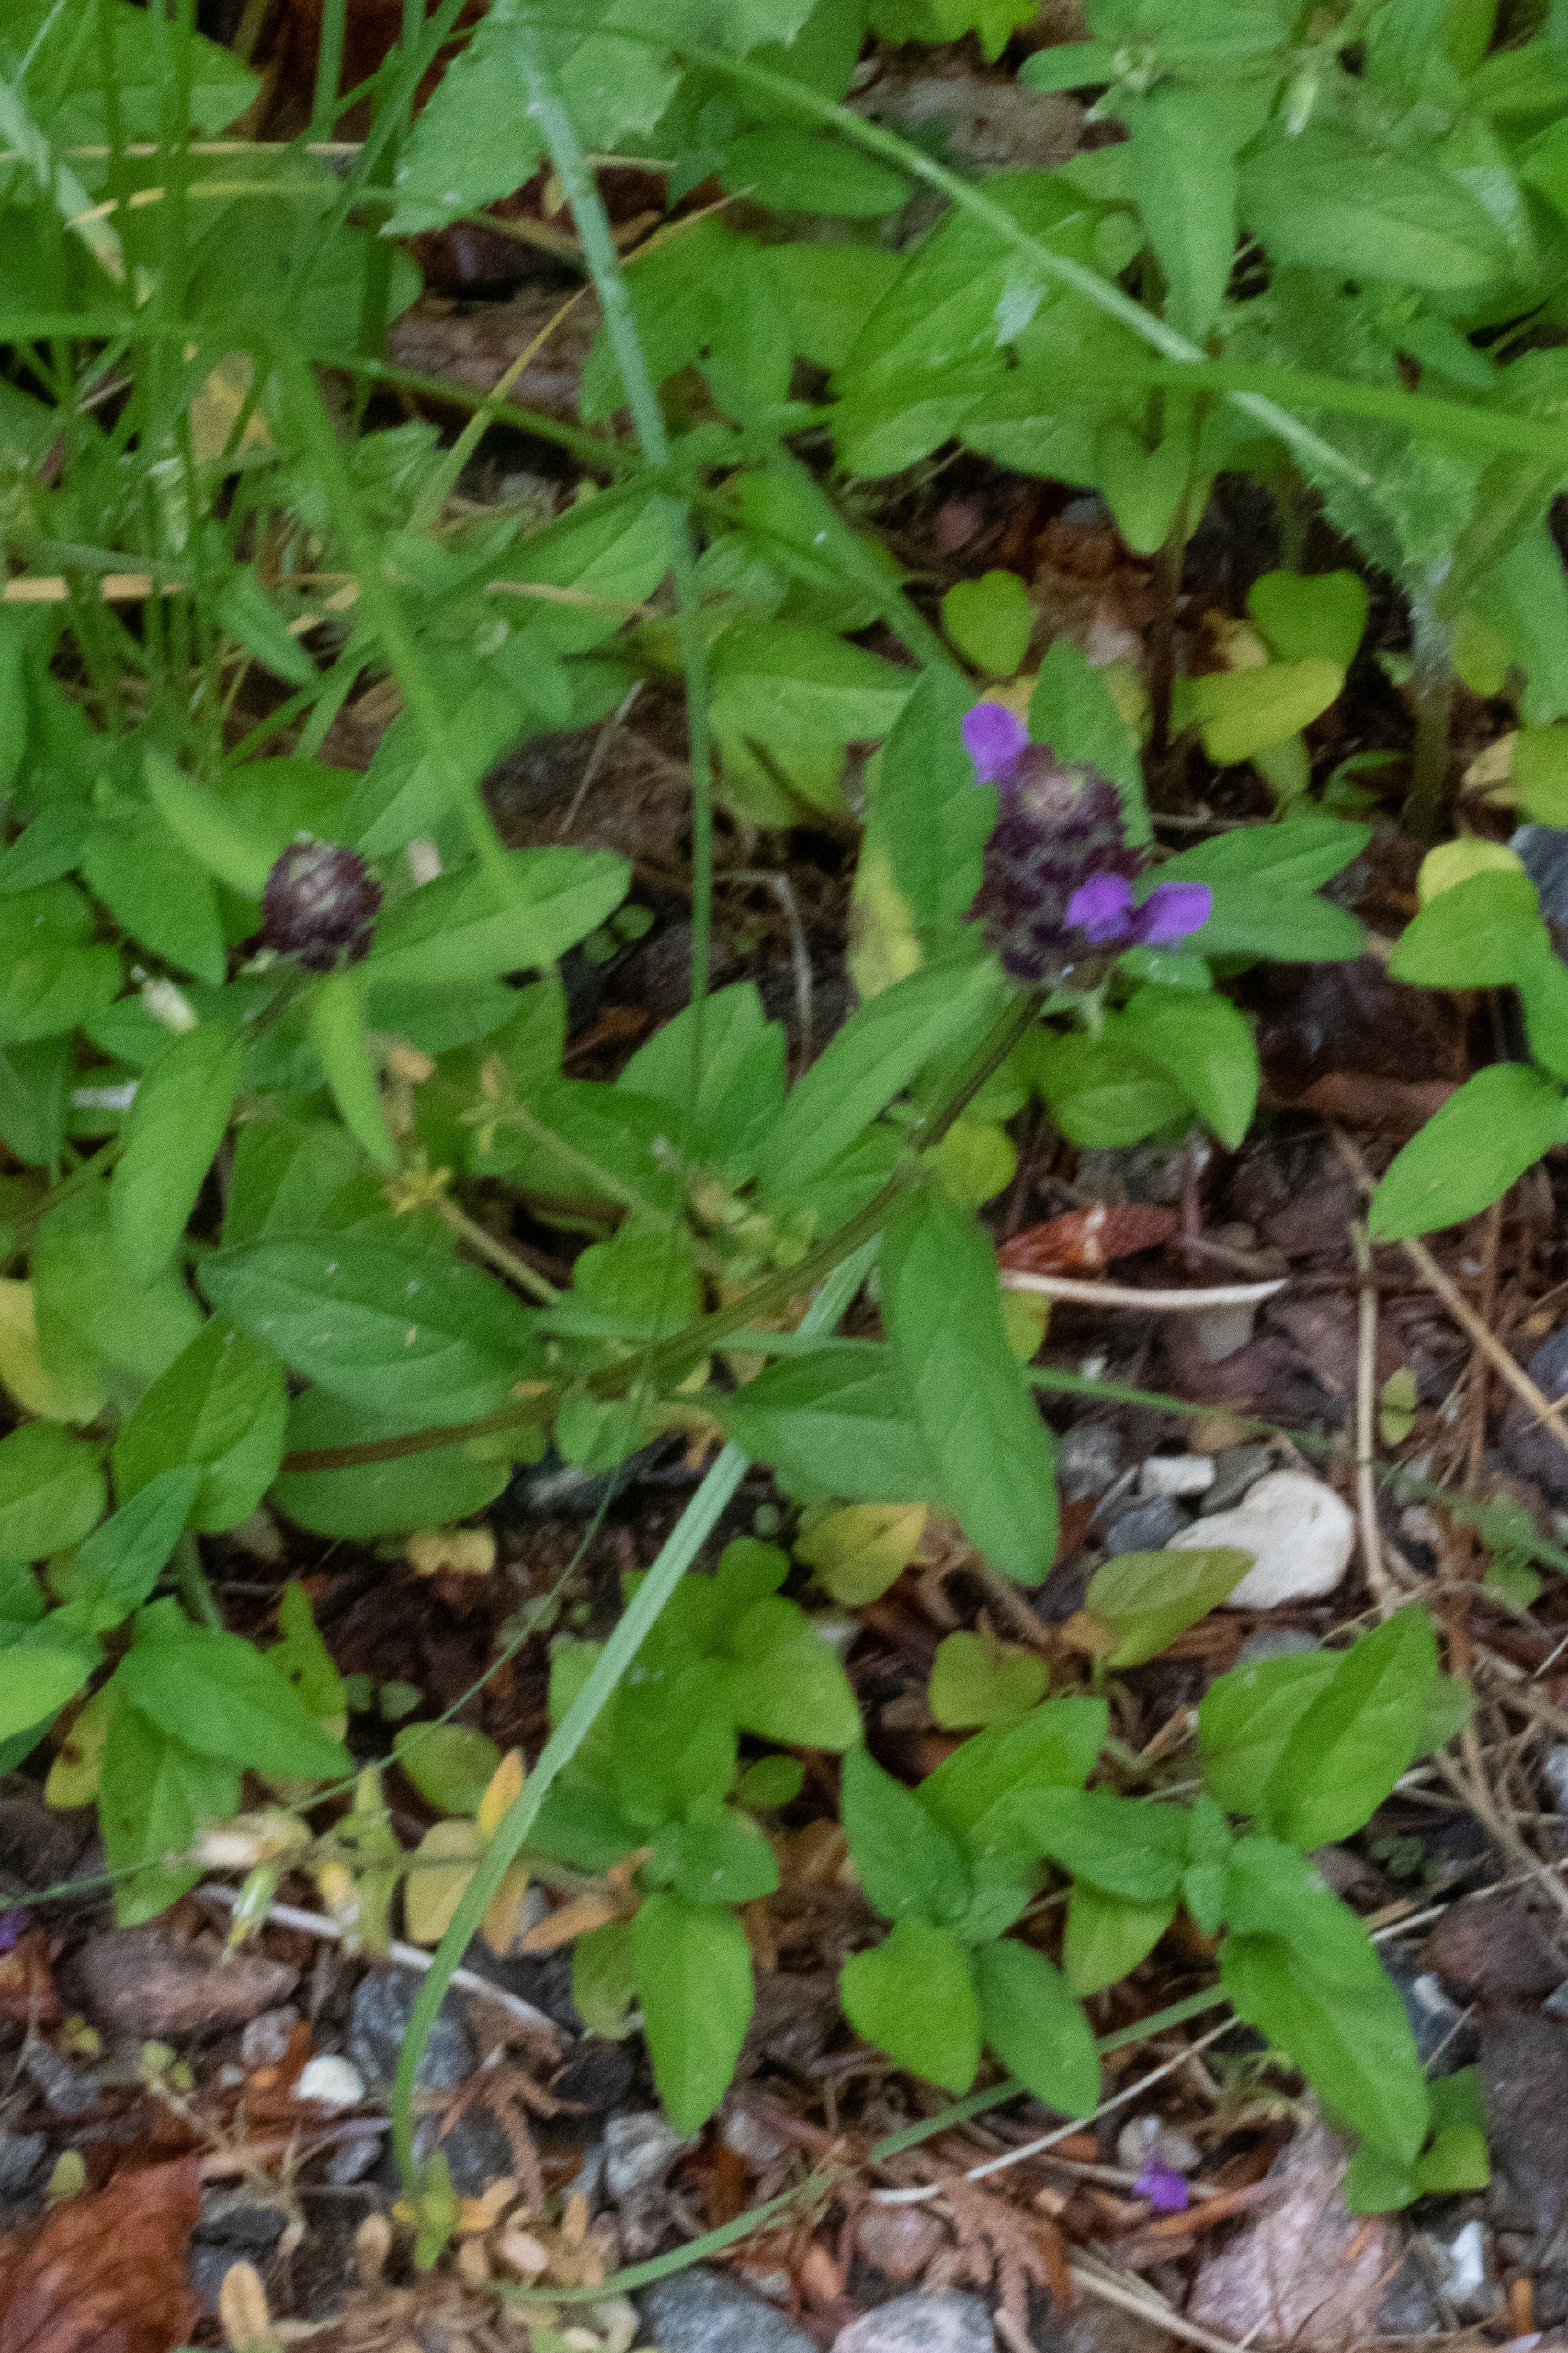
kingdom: Plantae
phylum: Tracheophyta
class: Magnoliopsida
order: Lamiales
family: Lamiaceae
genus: Prunella
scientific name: Prunella vulgaris
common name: Almindelig brunelle
